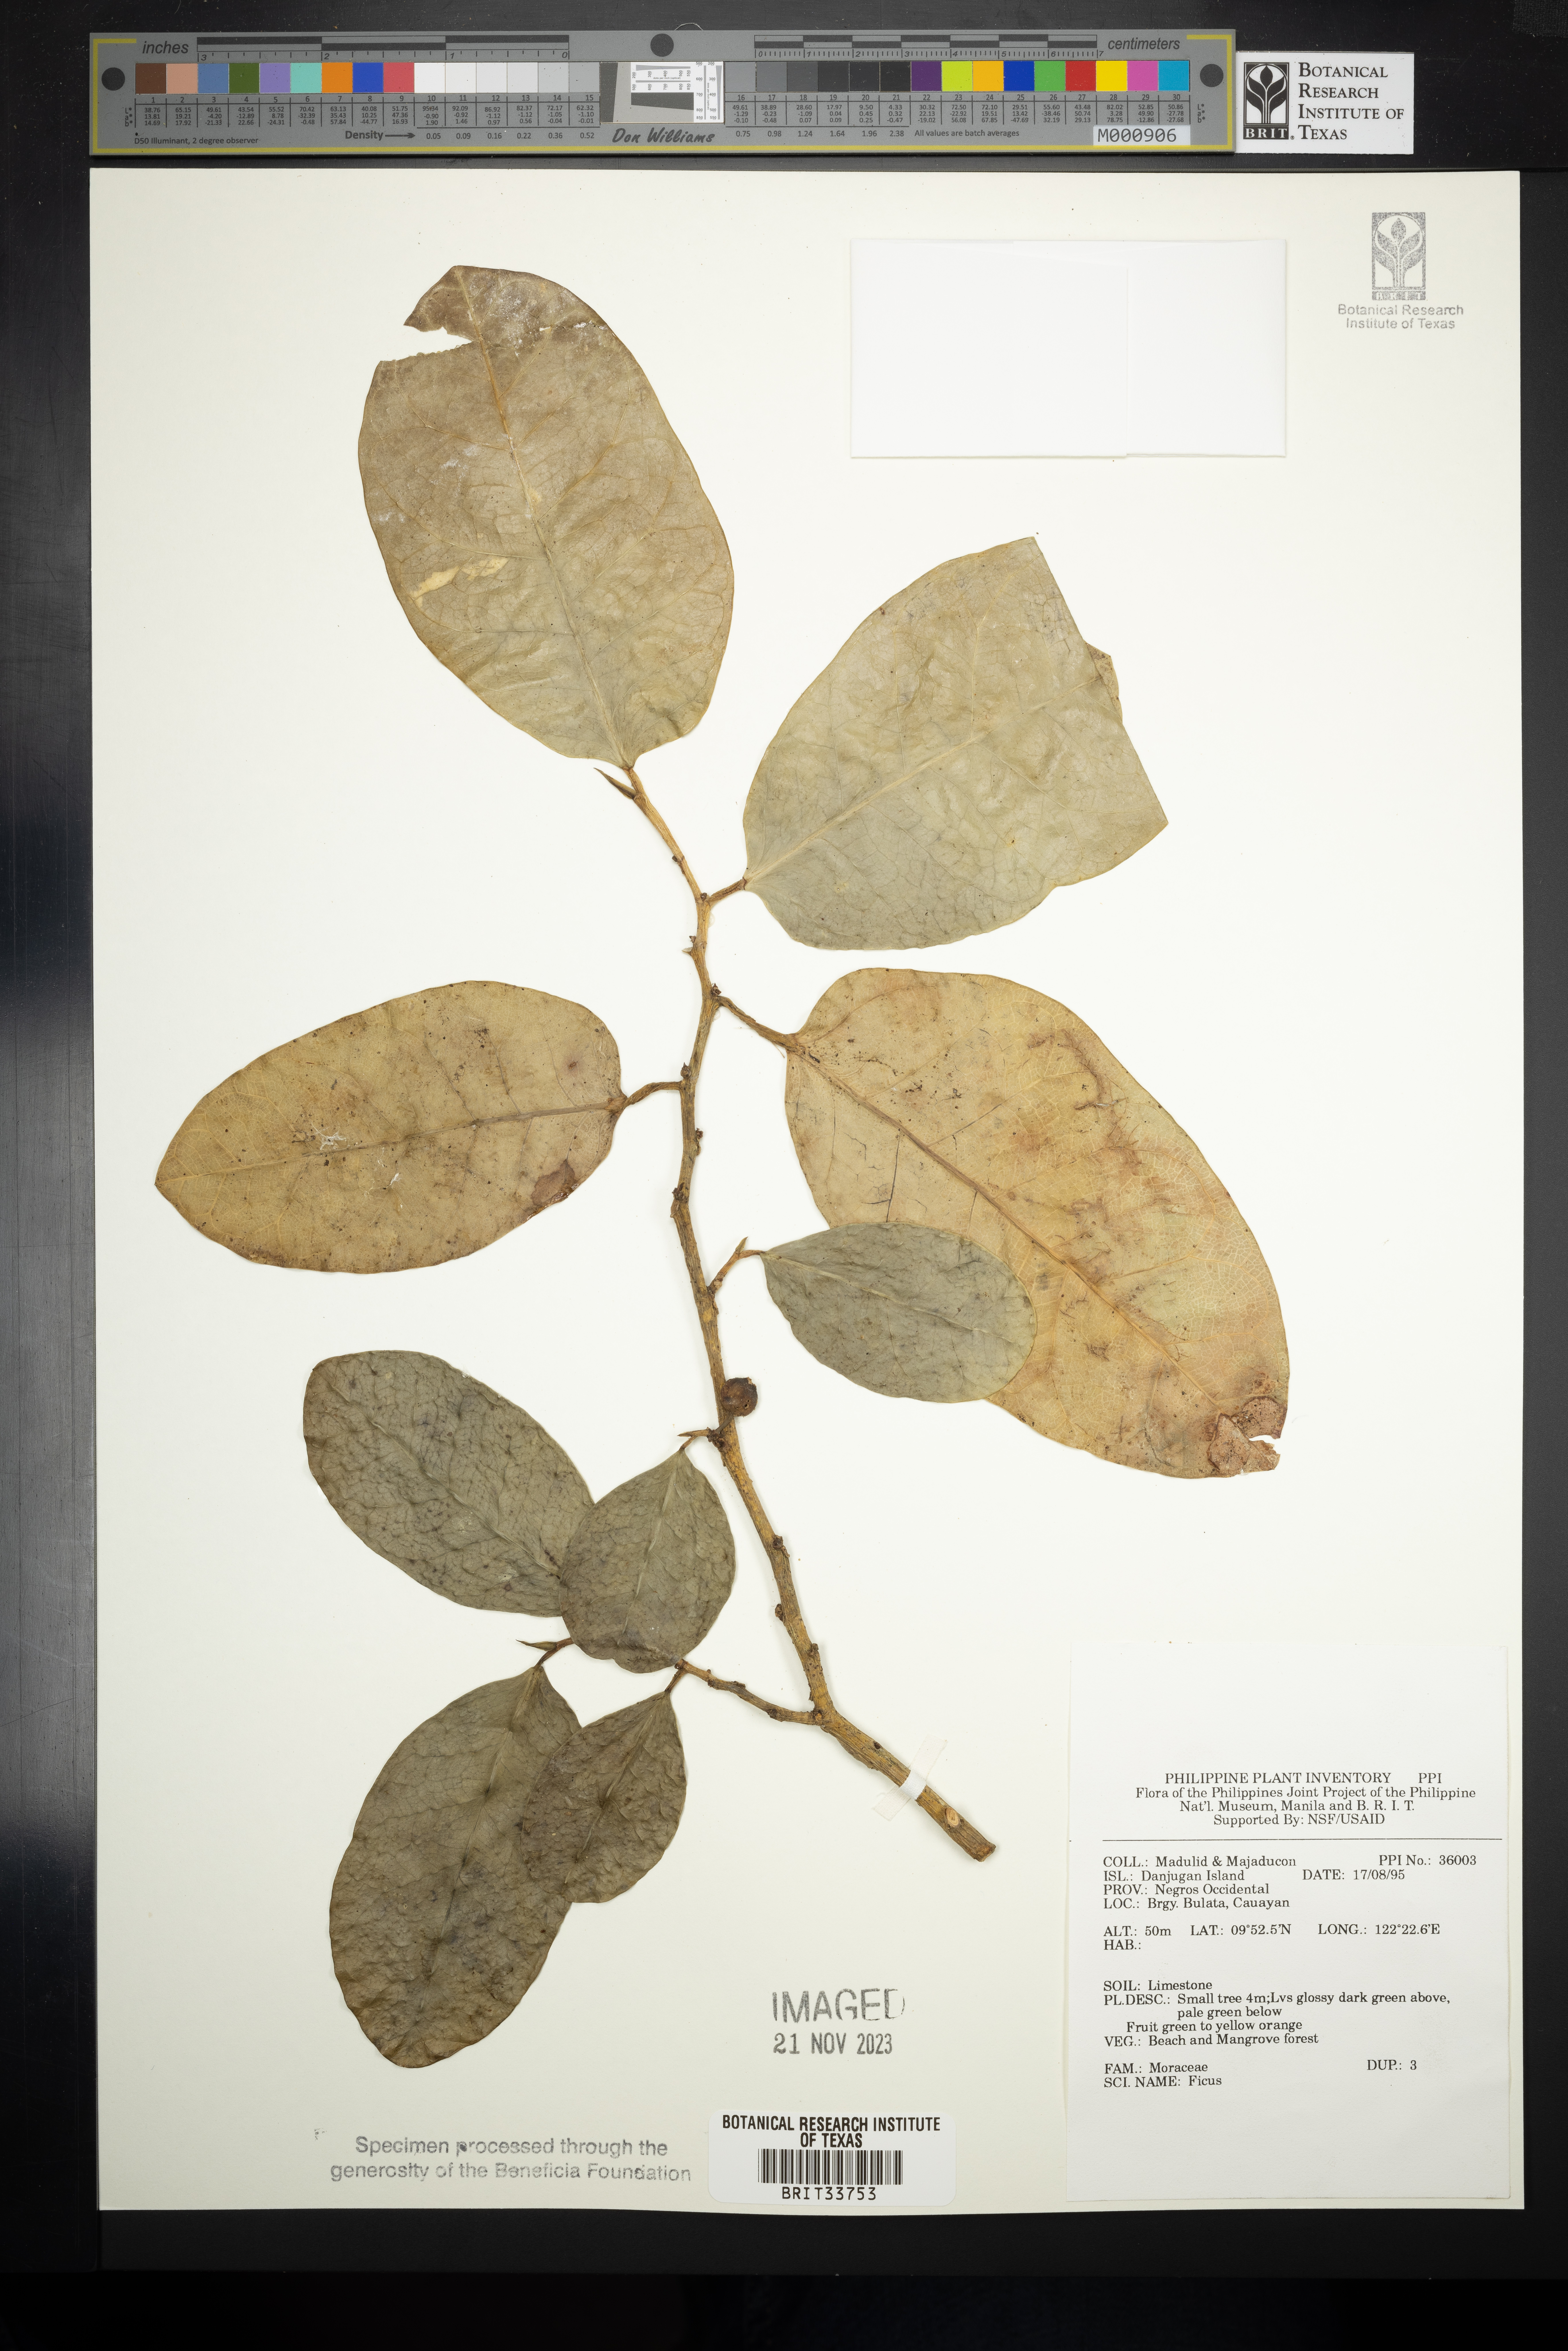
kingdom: Plantae
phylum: Tracheophyta
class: Magnoliopsida
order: Rosales
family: Moraceae
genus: Ficus
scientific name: Ficus
